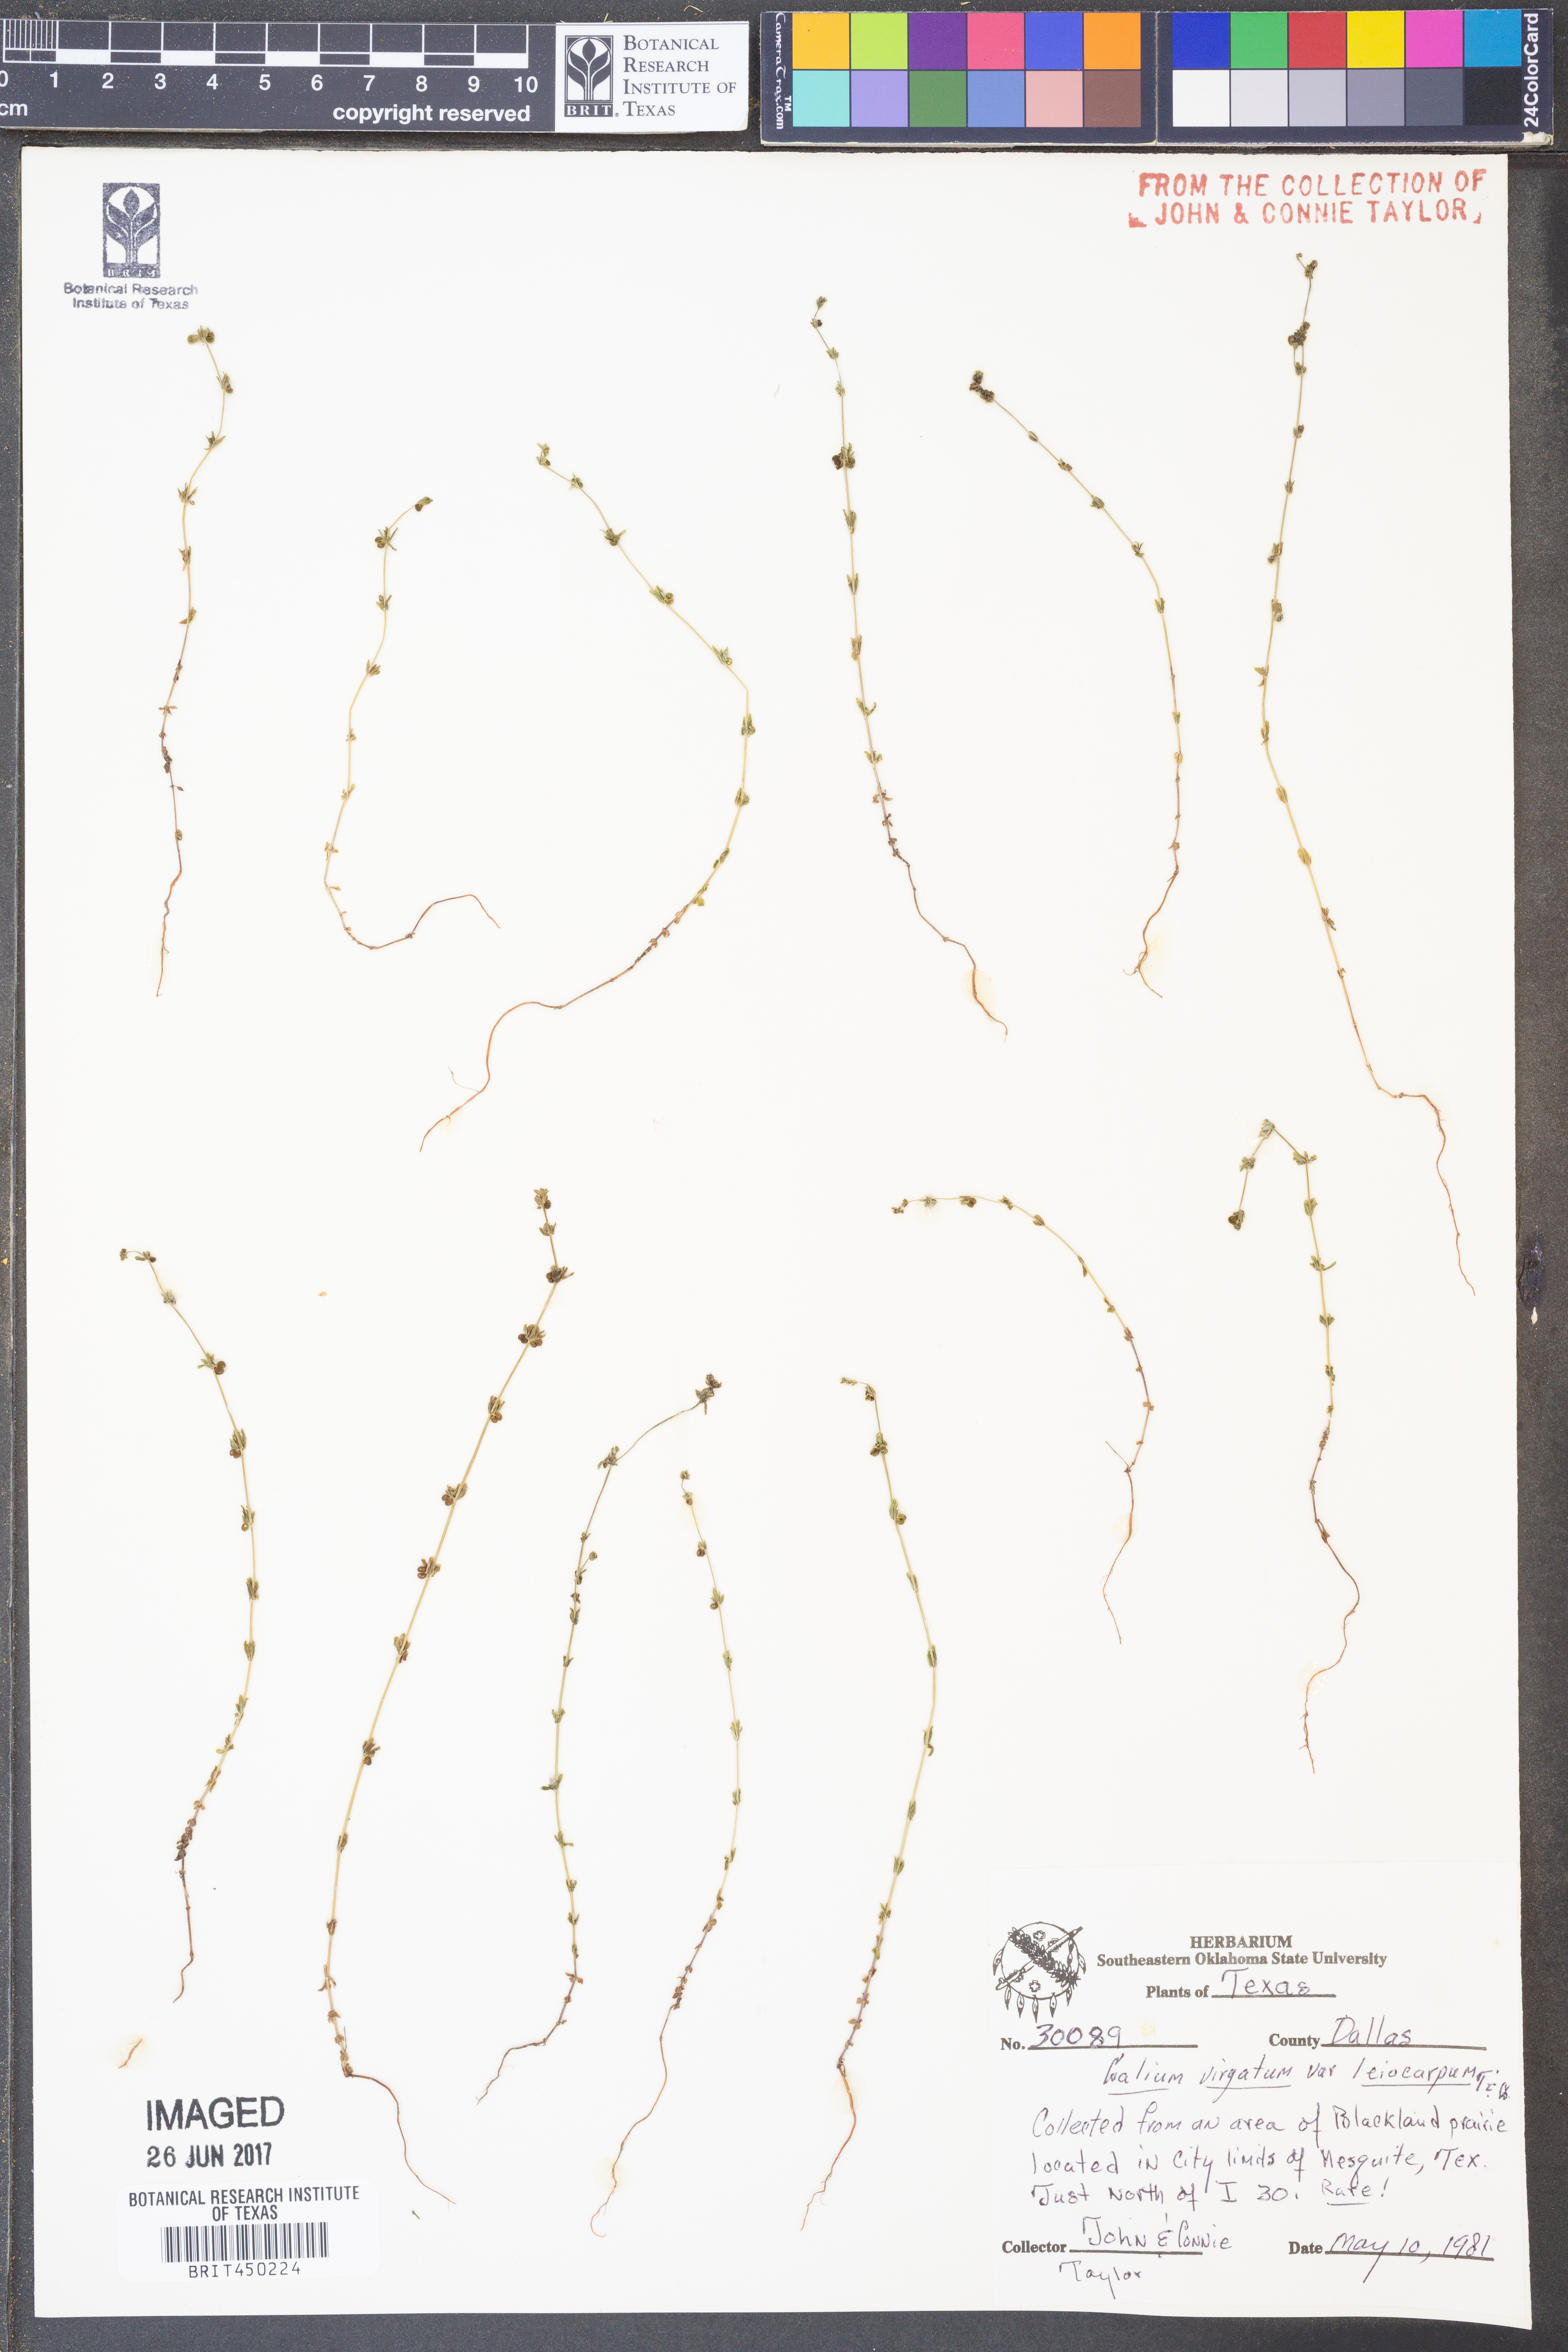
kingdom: Plantae
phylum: Tracheophyta
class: Magnoliopsida
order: Gentianales
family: Rubiaceae
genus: Galium
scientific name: Galium virgatum
